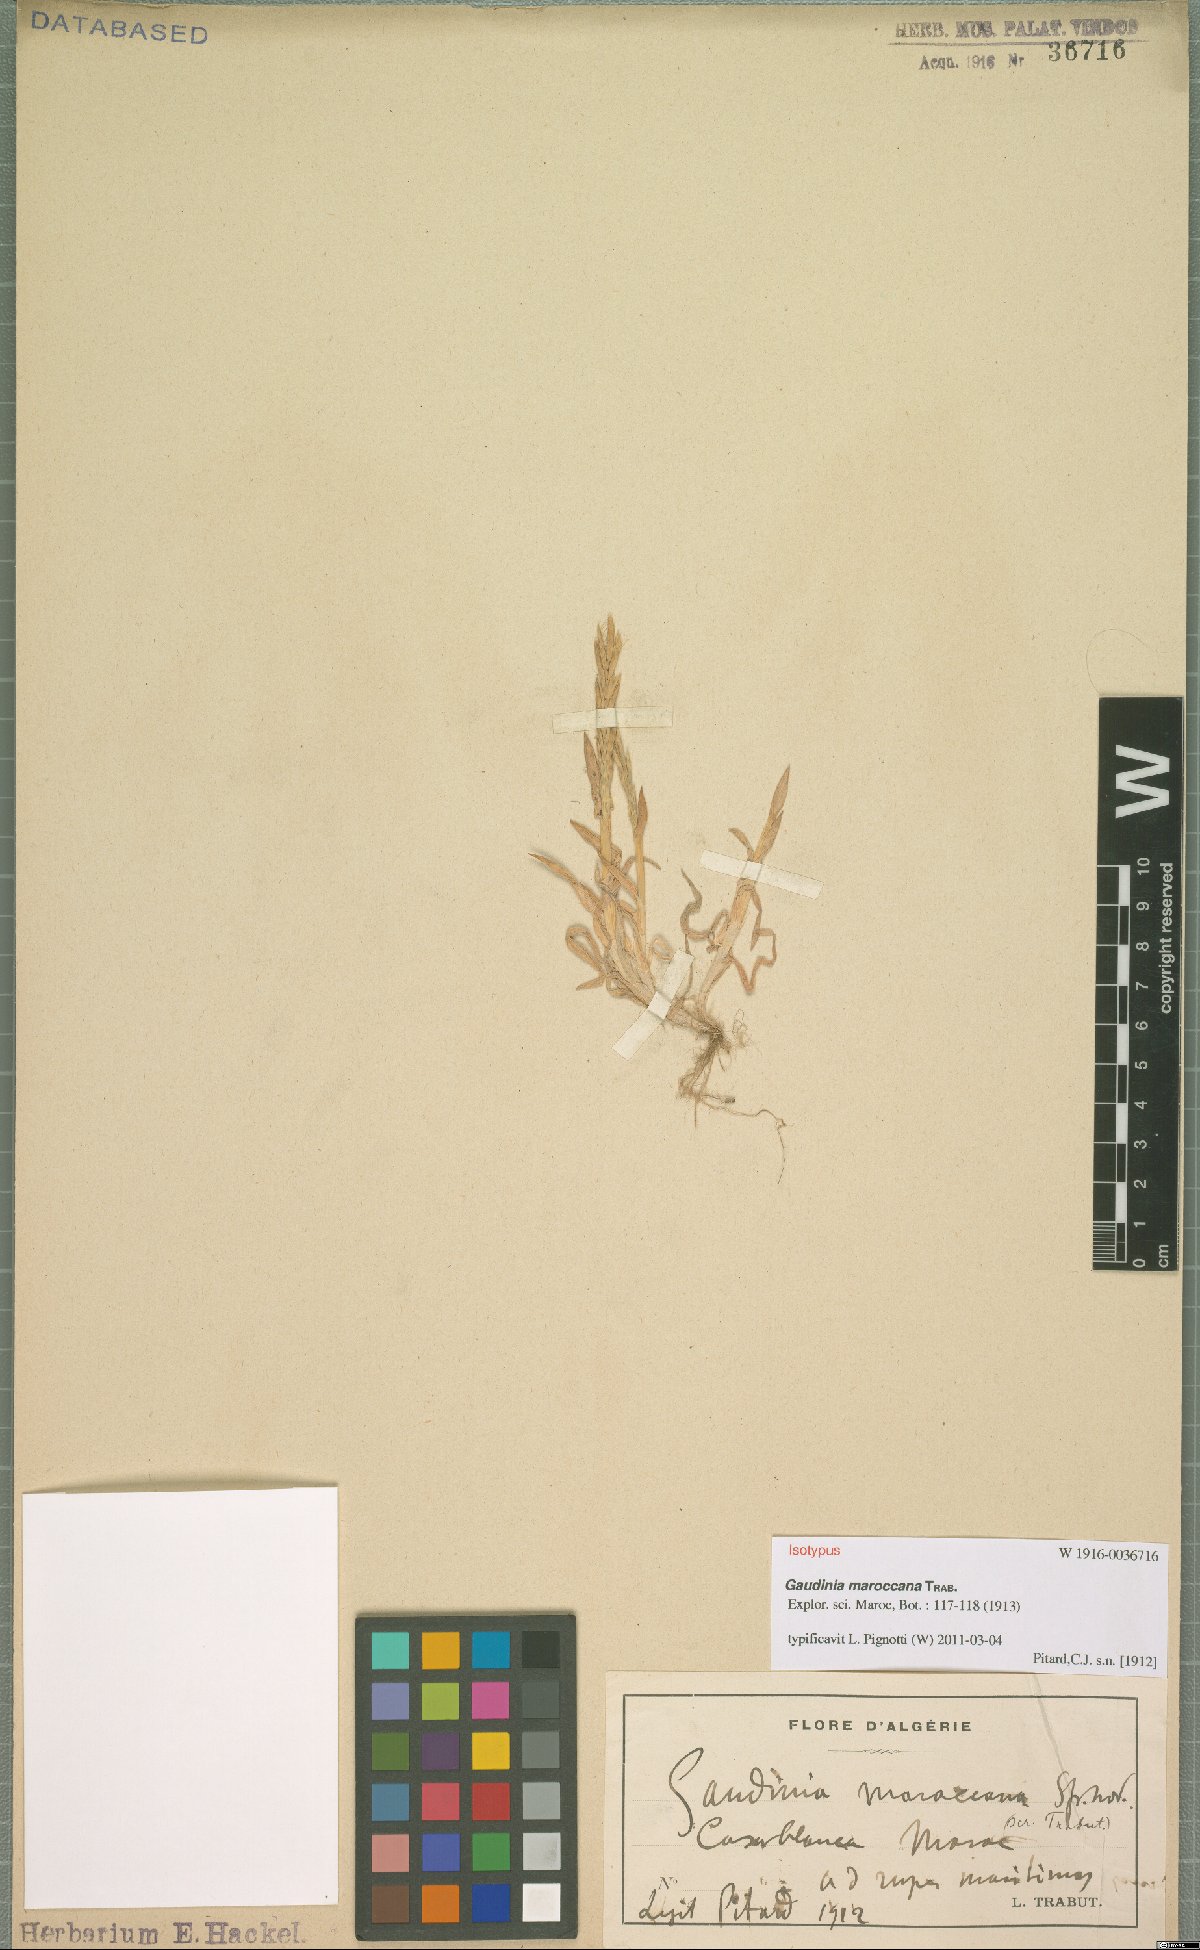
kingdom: Plantae
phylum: Tracheophyta
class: Liliopsida
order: Poales
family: Poaceae
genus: Gaudinia
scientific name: Gaudinia maroccana
